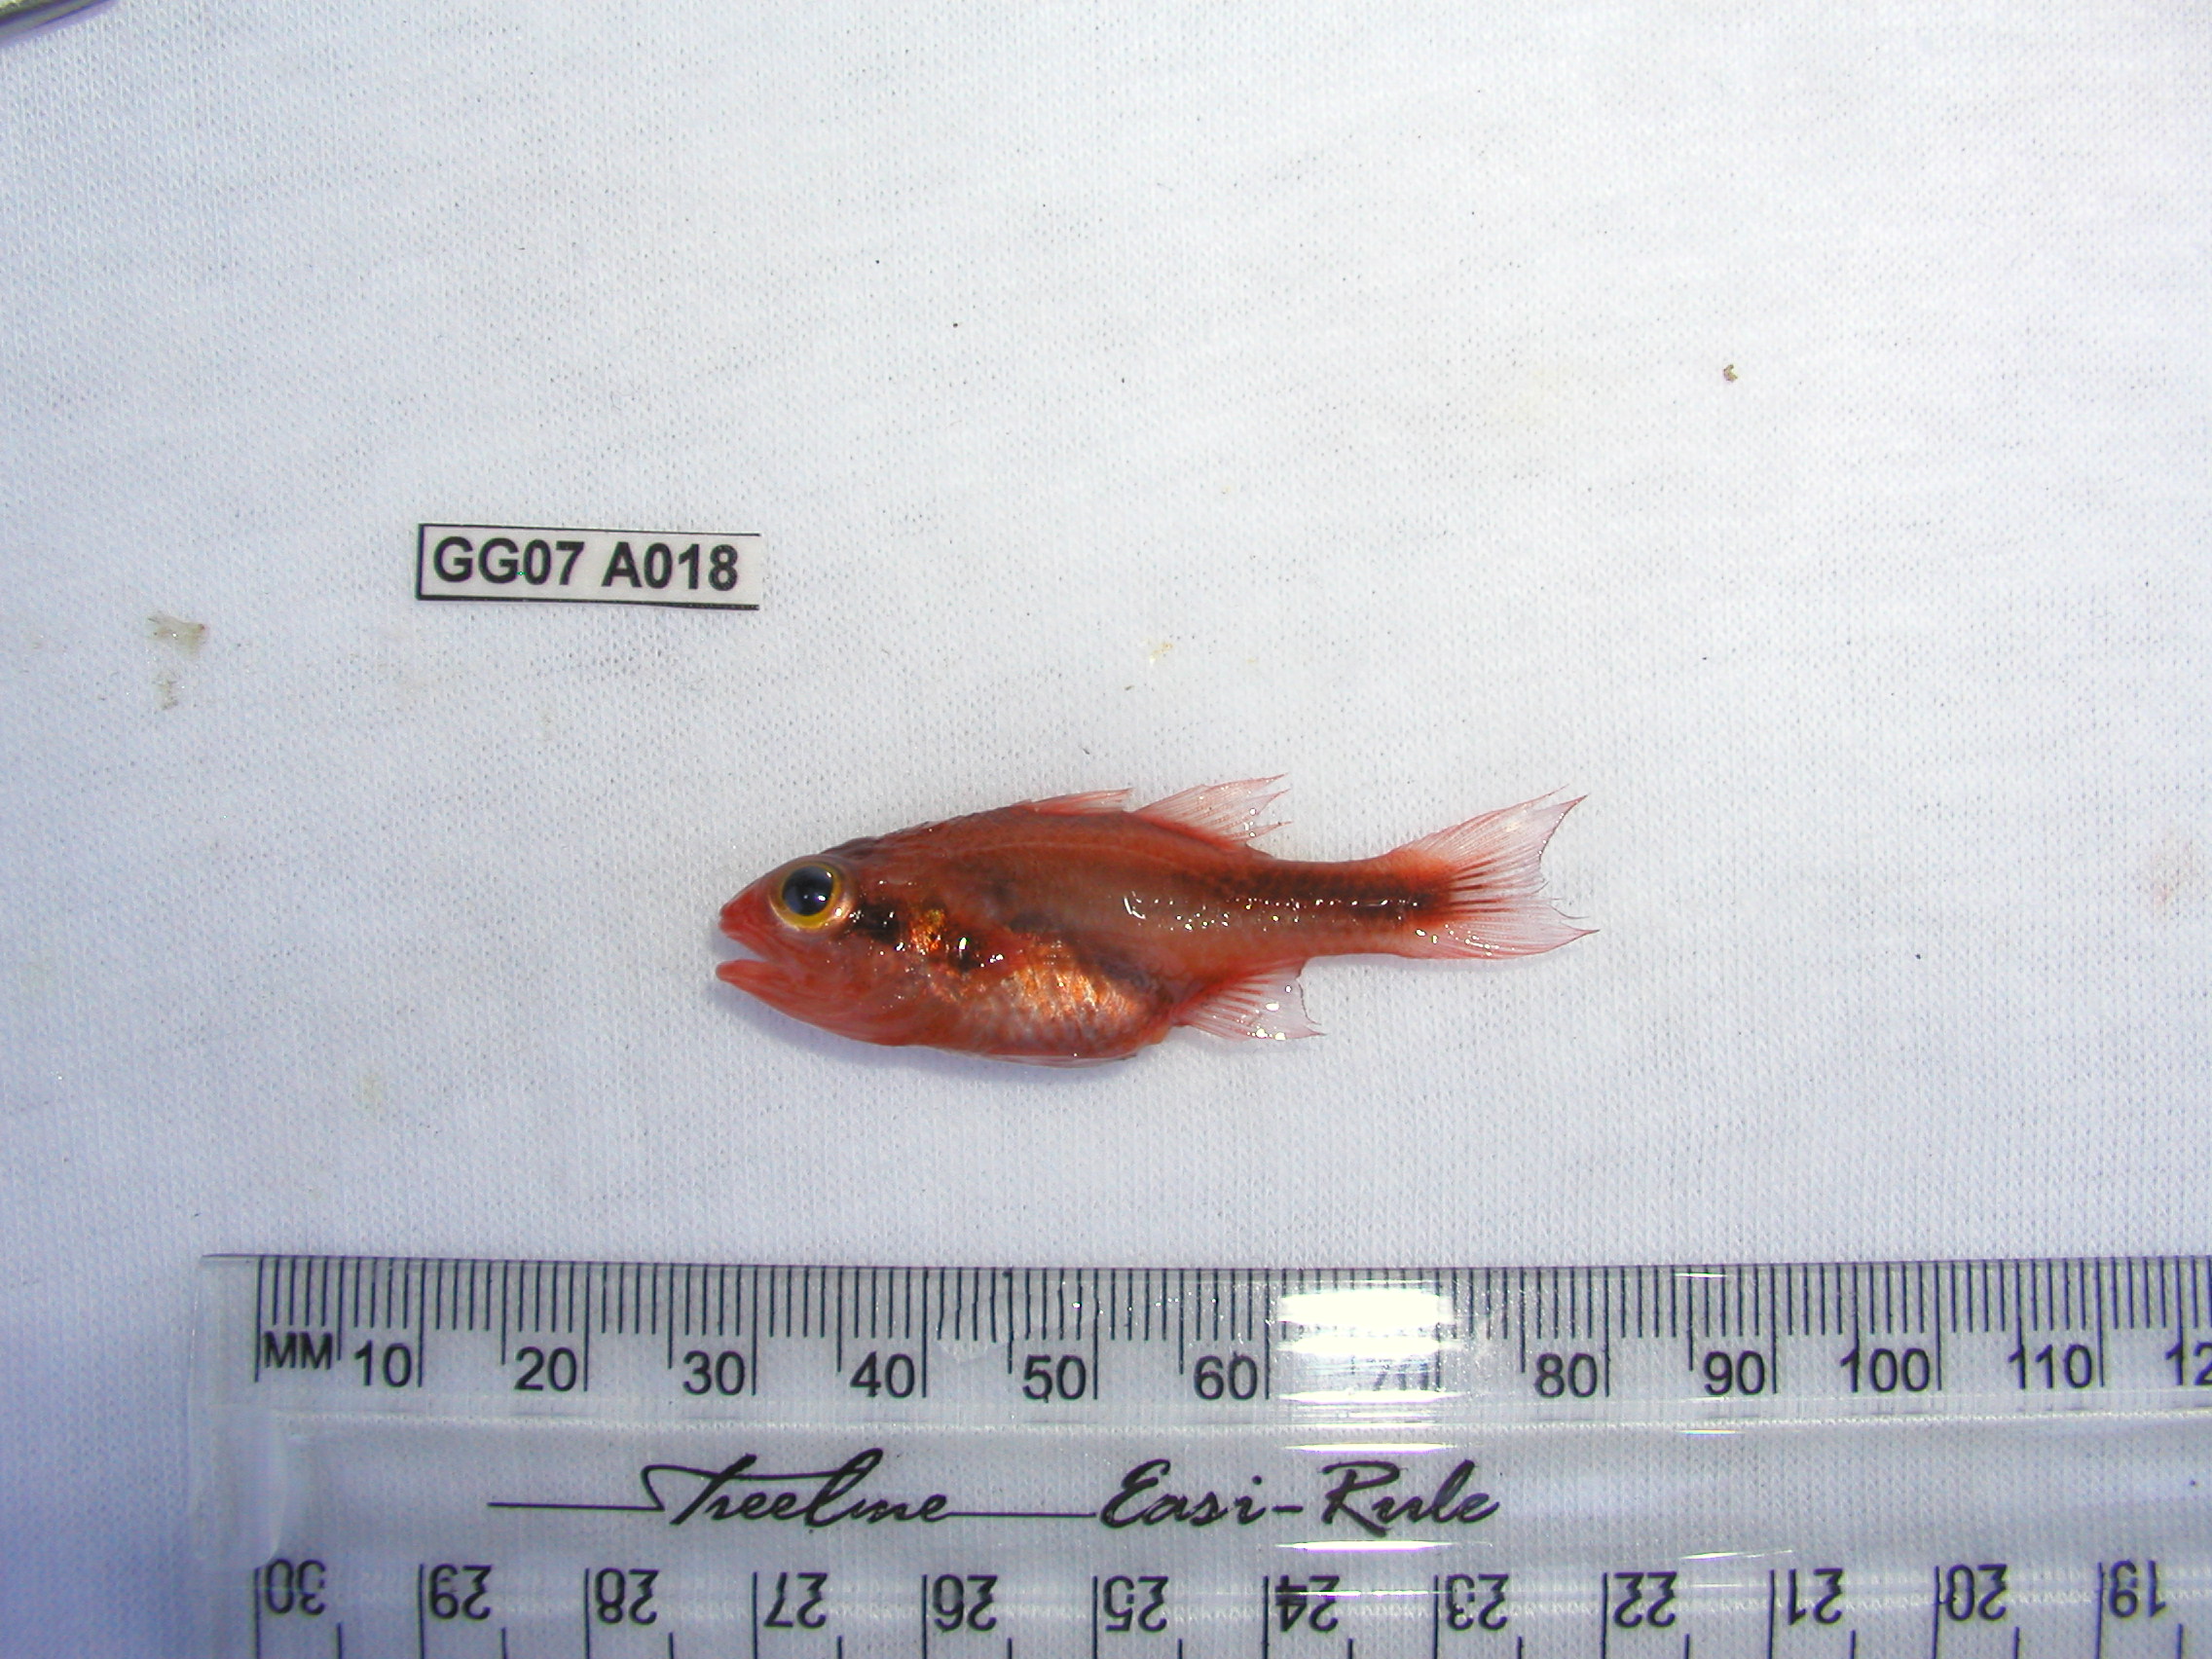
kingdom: Animalia
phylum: Chordata
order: Perciformes
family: Apogonidae
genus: Apogon
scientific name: Apogon semiornatus
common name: Threeband cardinalfish
